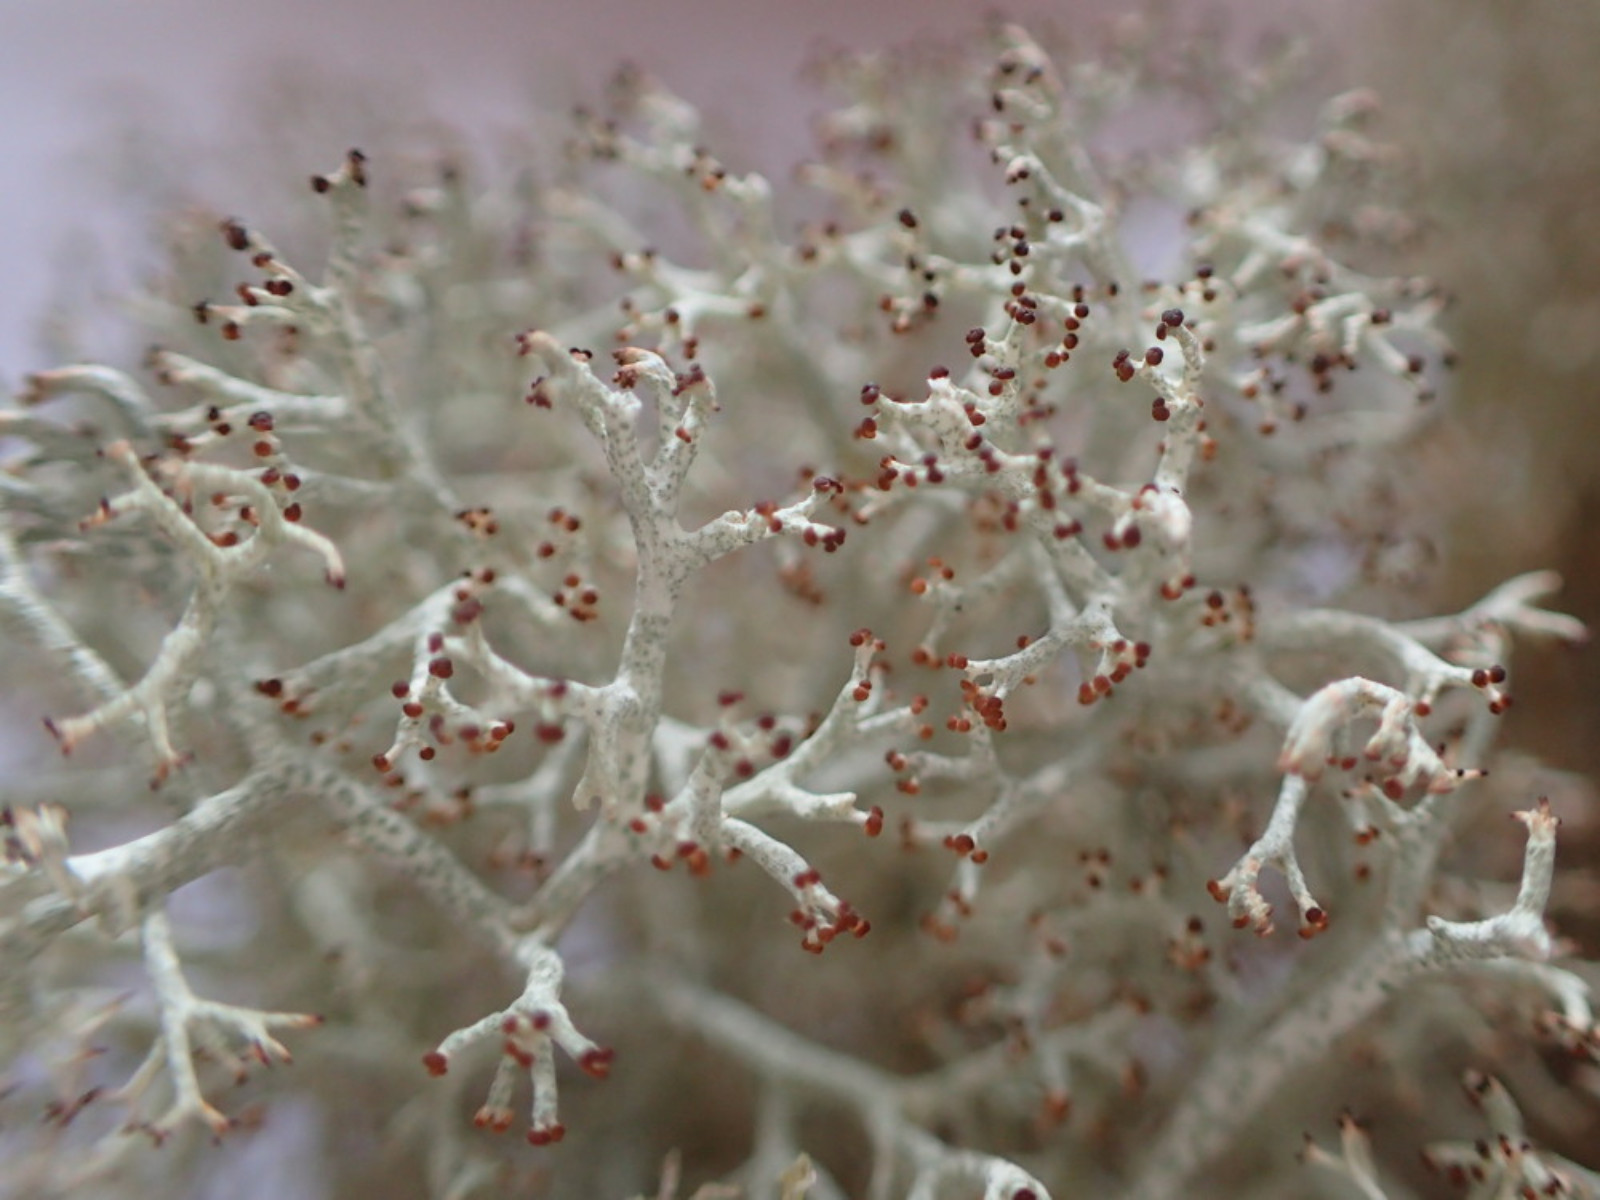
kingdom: Fungi
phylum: Ascomycota
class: Lecanoromycetes
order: Lecanorales
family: Cladoniaceae
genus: Cladonia
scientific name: Cladonia portentosa
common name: hede-rensdyrlav
